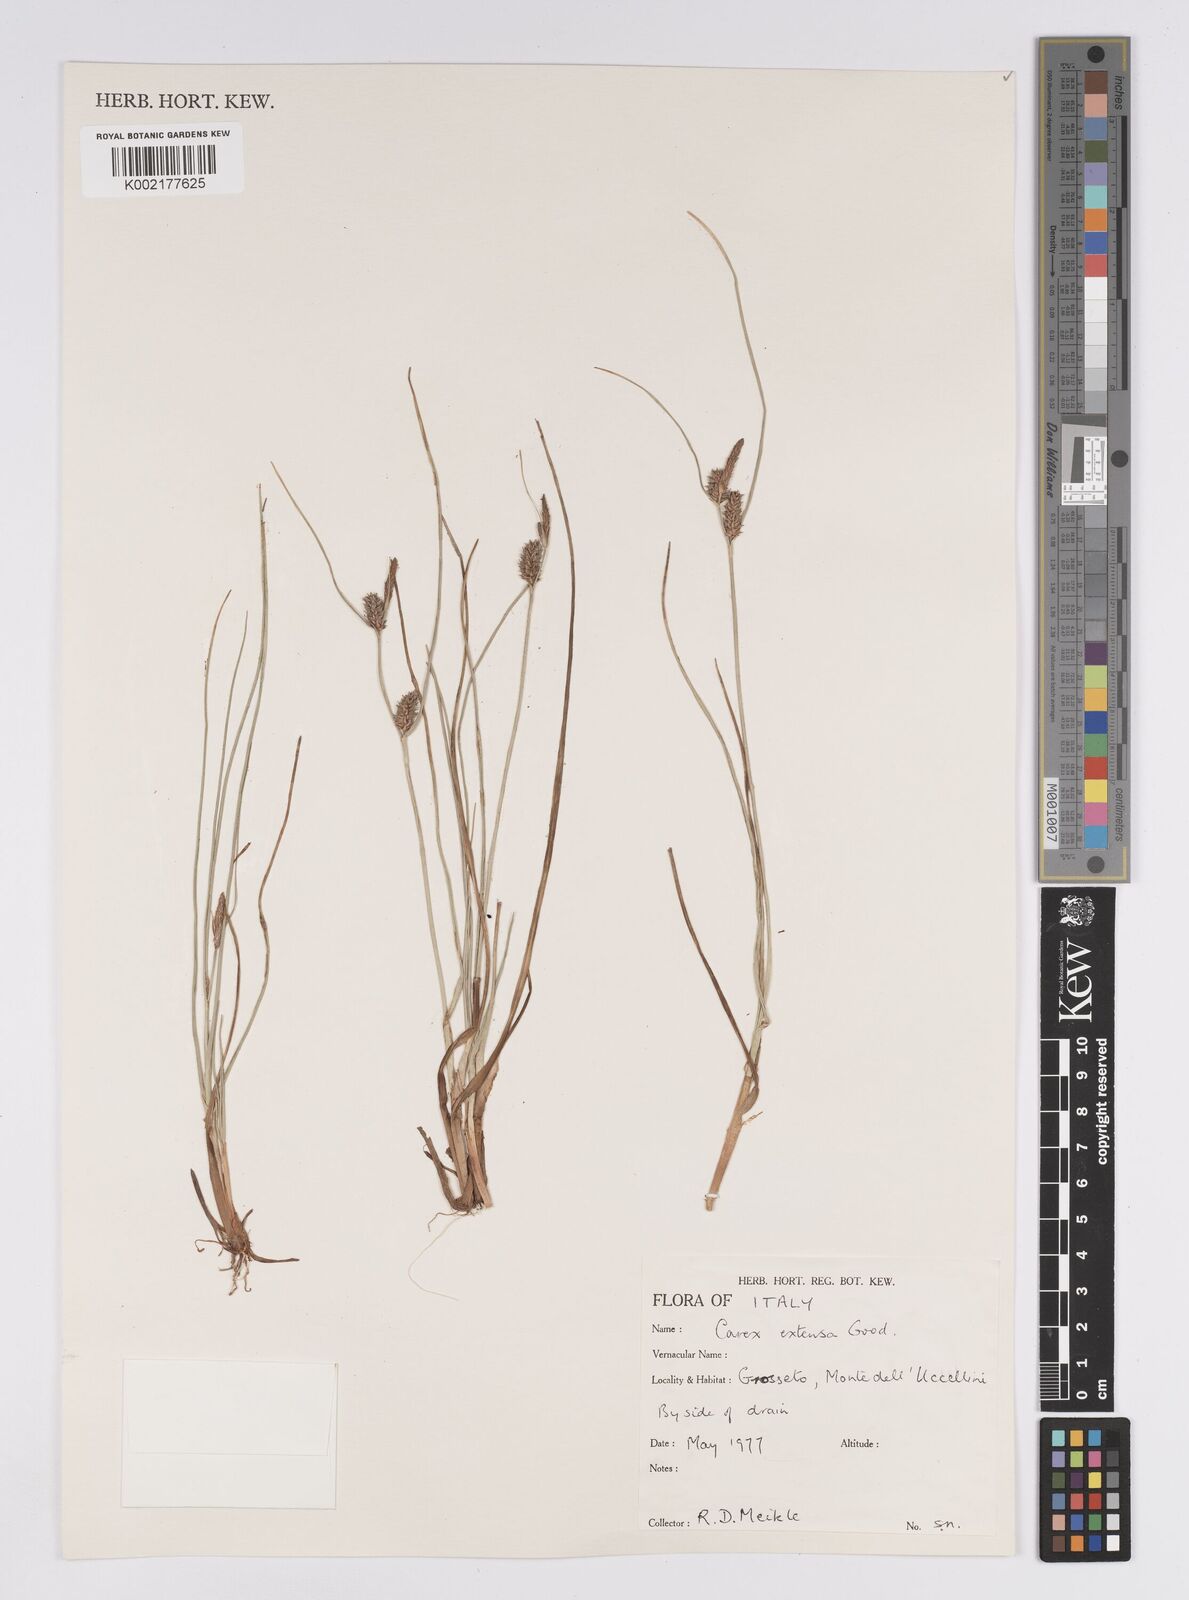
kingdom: Plantae
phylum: Tracheophyta
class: Liliopsida
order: Poales
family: Cyperaceae
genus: Carex
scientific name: Carex extensa
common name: Long-bracted sedge
